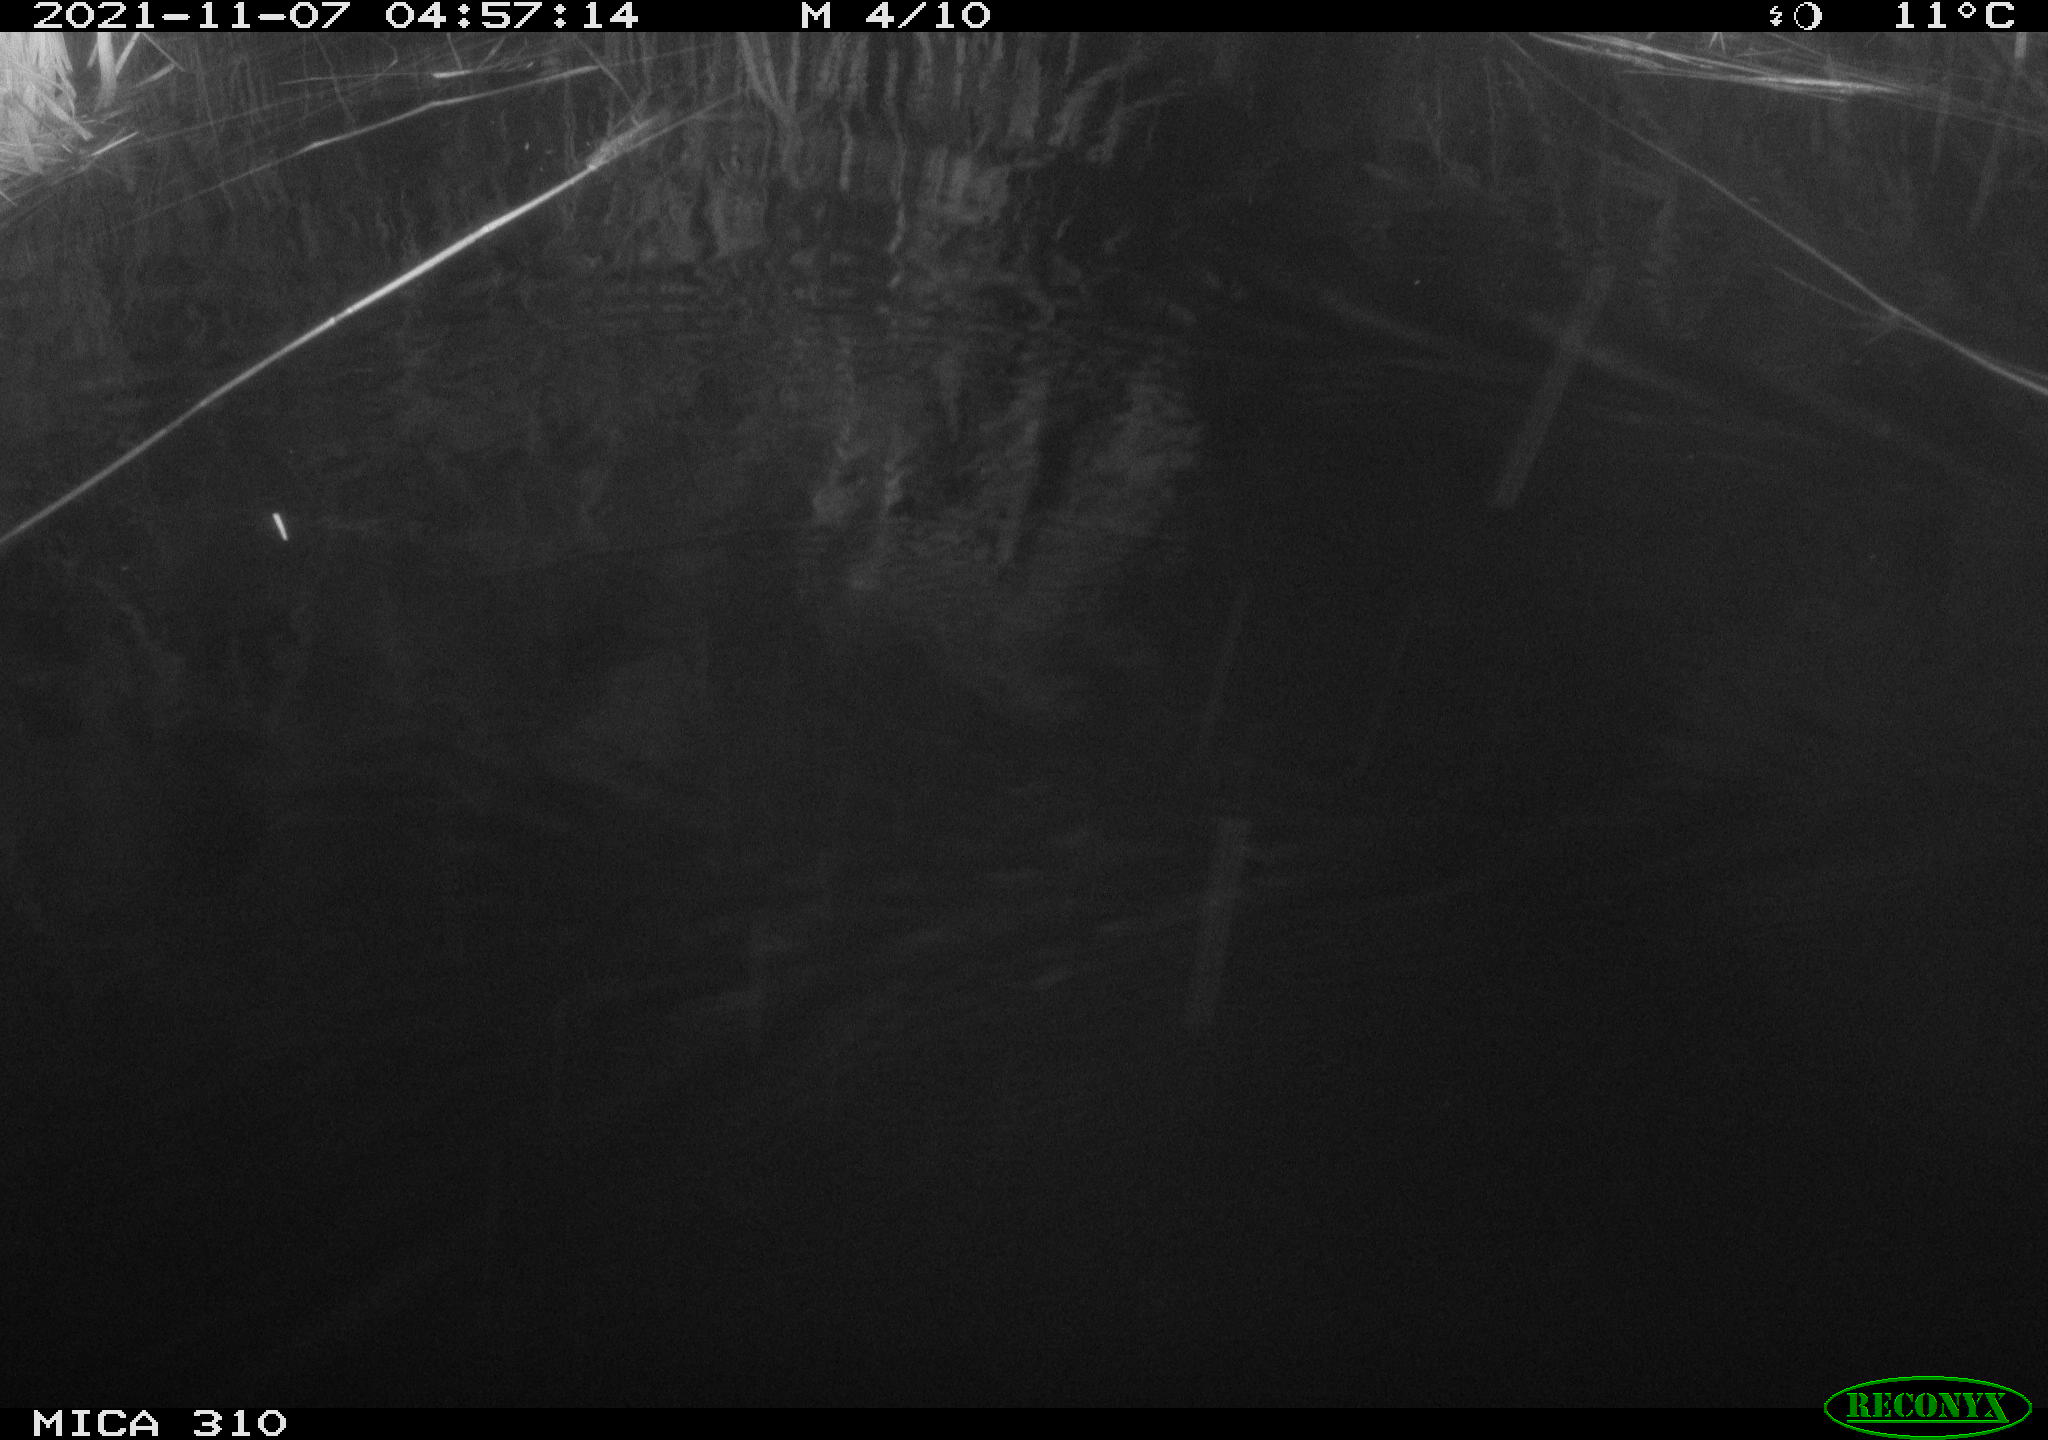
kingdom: Animalia
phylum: Chordata
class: Mammalia
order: Rodentia
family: Muridae
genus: Rattus
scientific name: Rattus norvegicus
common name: Brown rat
